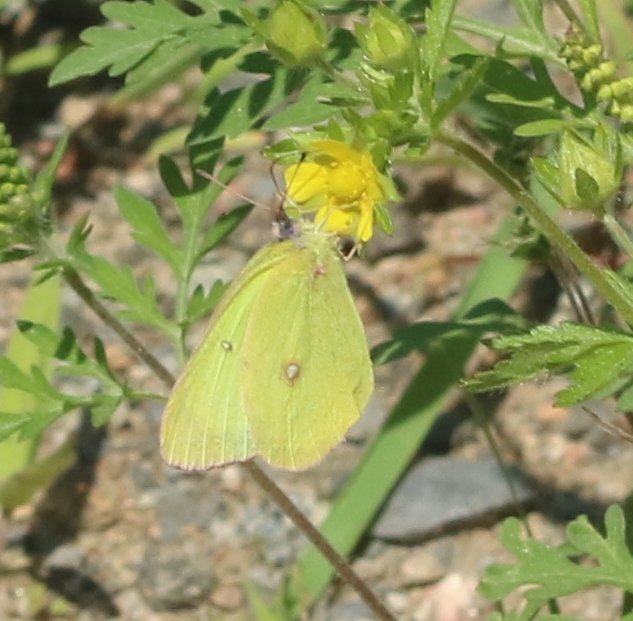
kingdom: Animalia
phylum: Arthropoda
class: Insecta
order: Lepidoptera
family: Pieridae
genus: Colias
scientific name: Colias interior
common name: Pink-edged Sulphur
